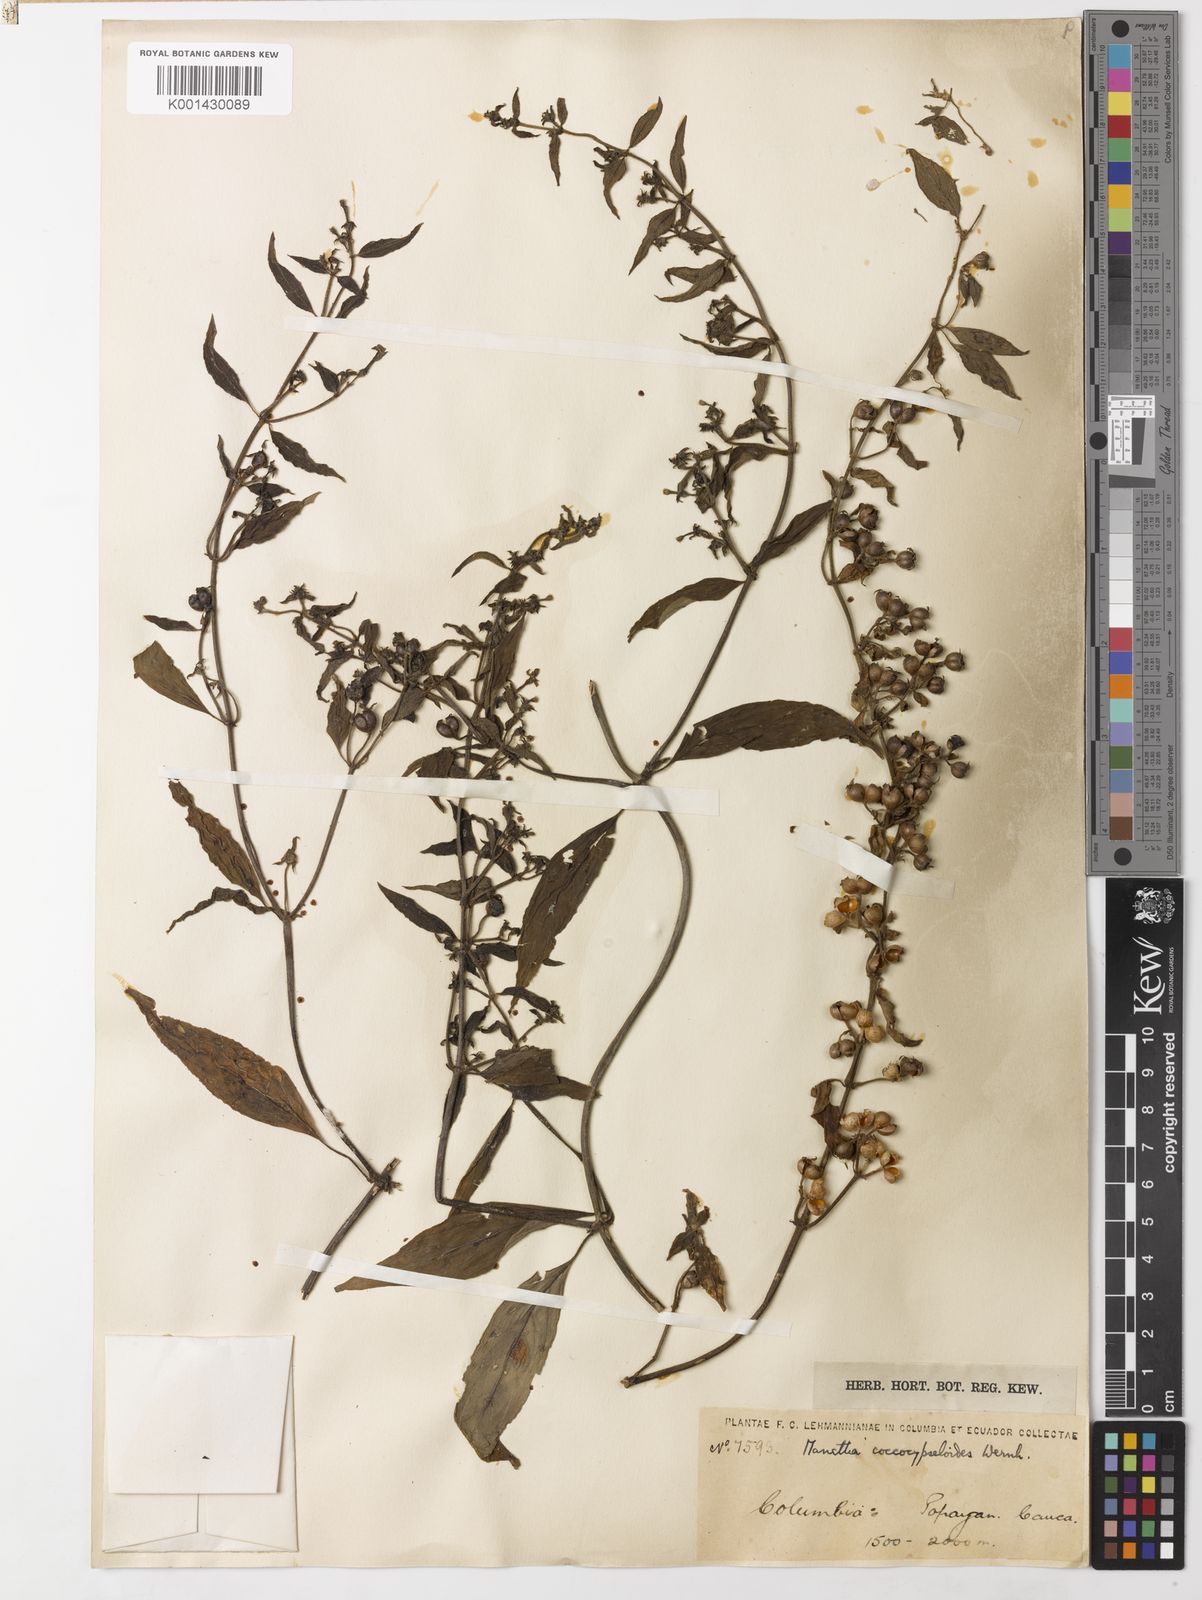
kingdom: Plantae
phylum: Tracheophyta
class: Magnoliopsida
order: Gentianales
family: Rubiaceae
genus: Manettia
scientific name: Manettia coccocypseloides
